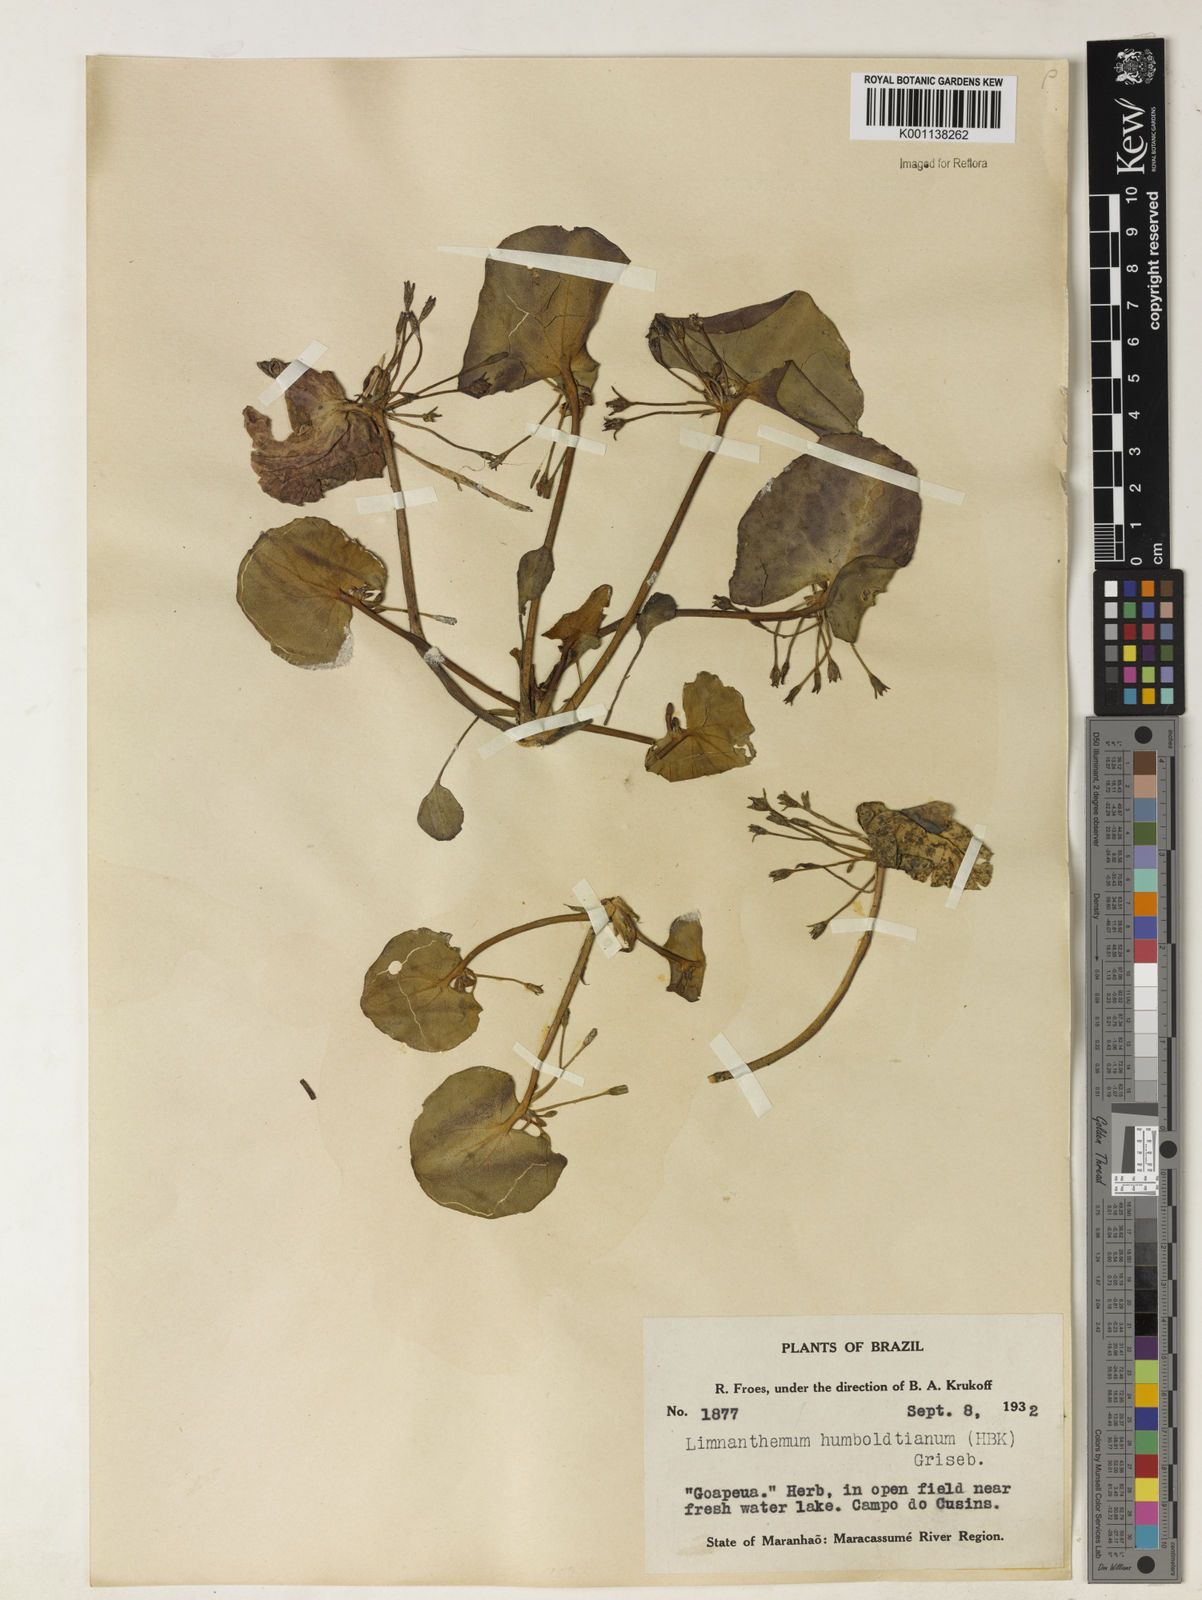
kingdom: Plantae
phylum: Tracheophyta
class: Magnoliopsida
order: Asterales
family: Menyanthaceae
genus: Nymphoides
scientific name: Nymphoides humboldtiana
